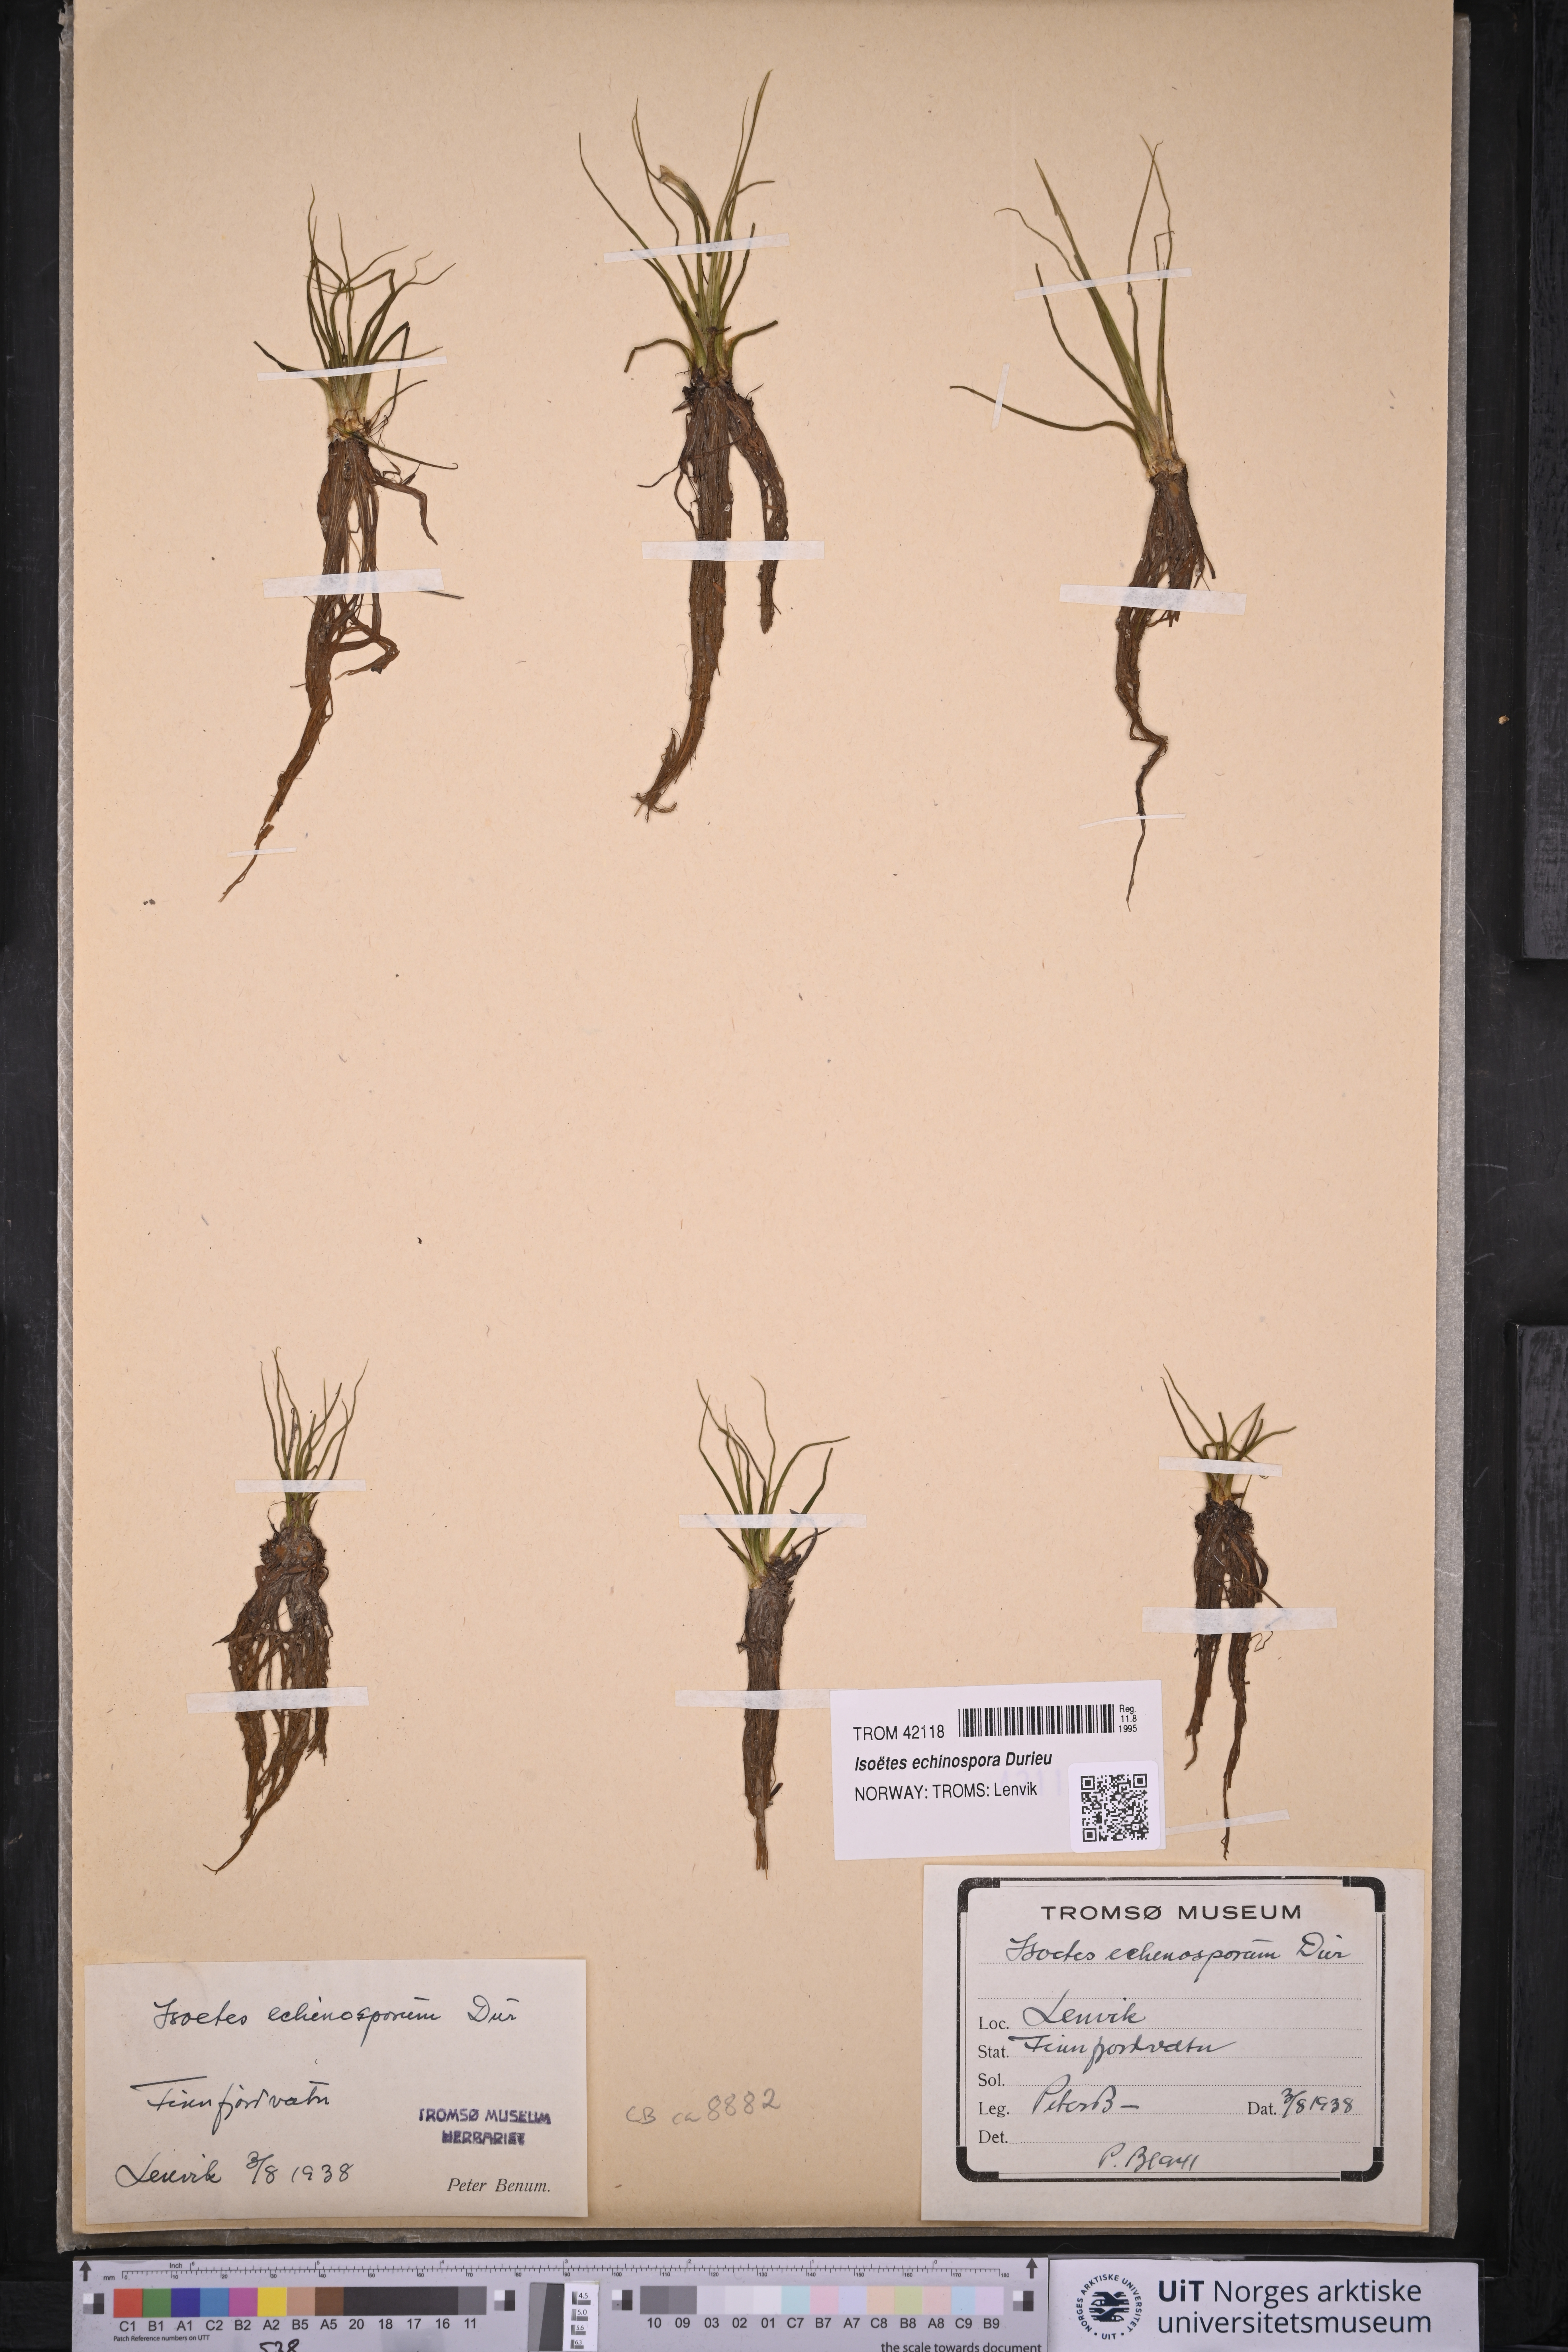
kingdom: Plantae
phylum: Tracheophyta
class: Lycopodiopsida
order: Isoetales
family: Isoetaceae
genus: Isoetes
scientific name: Isoetes echinospora
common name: Spring quillwort
